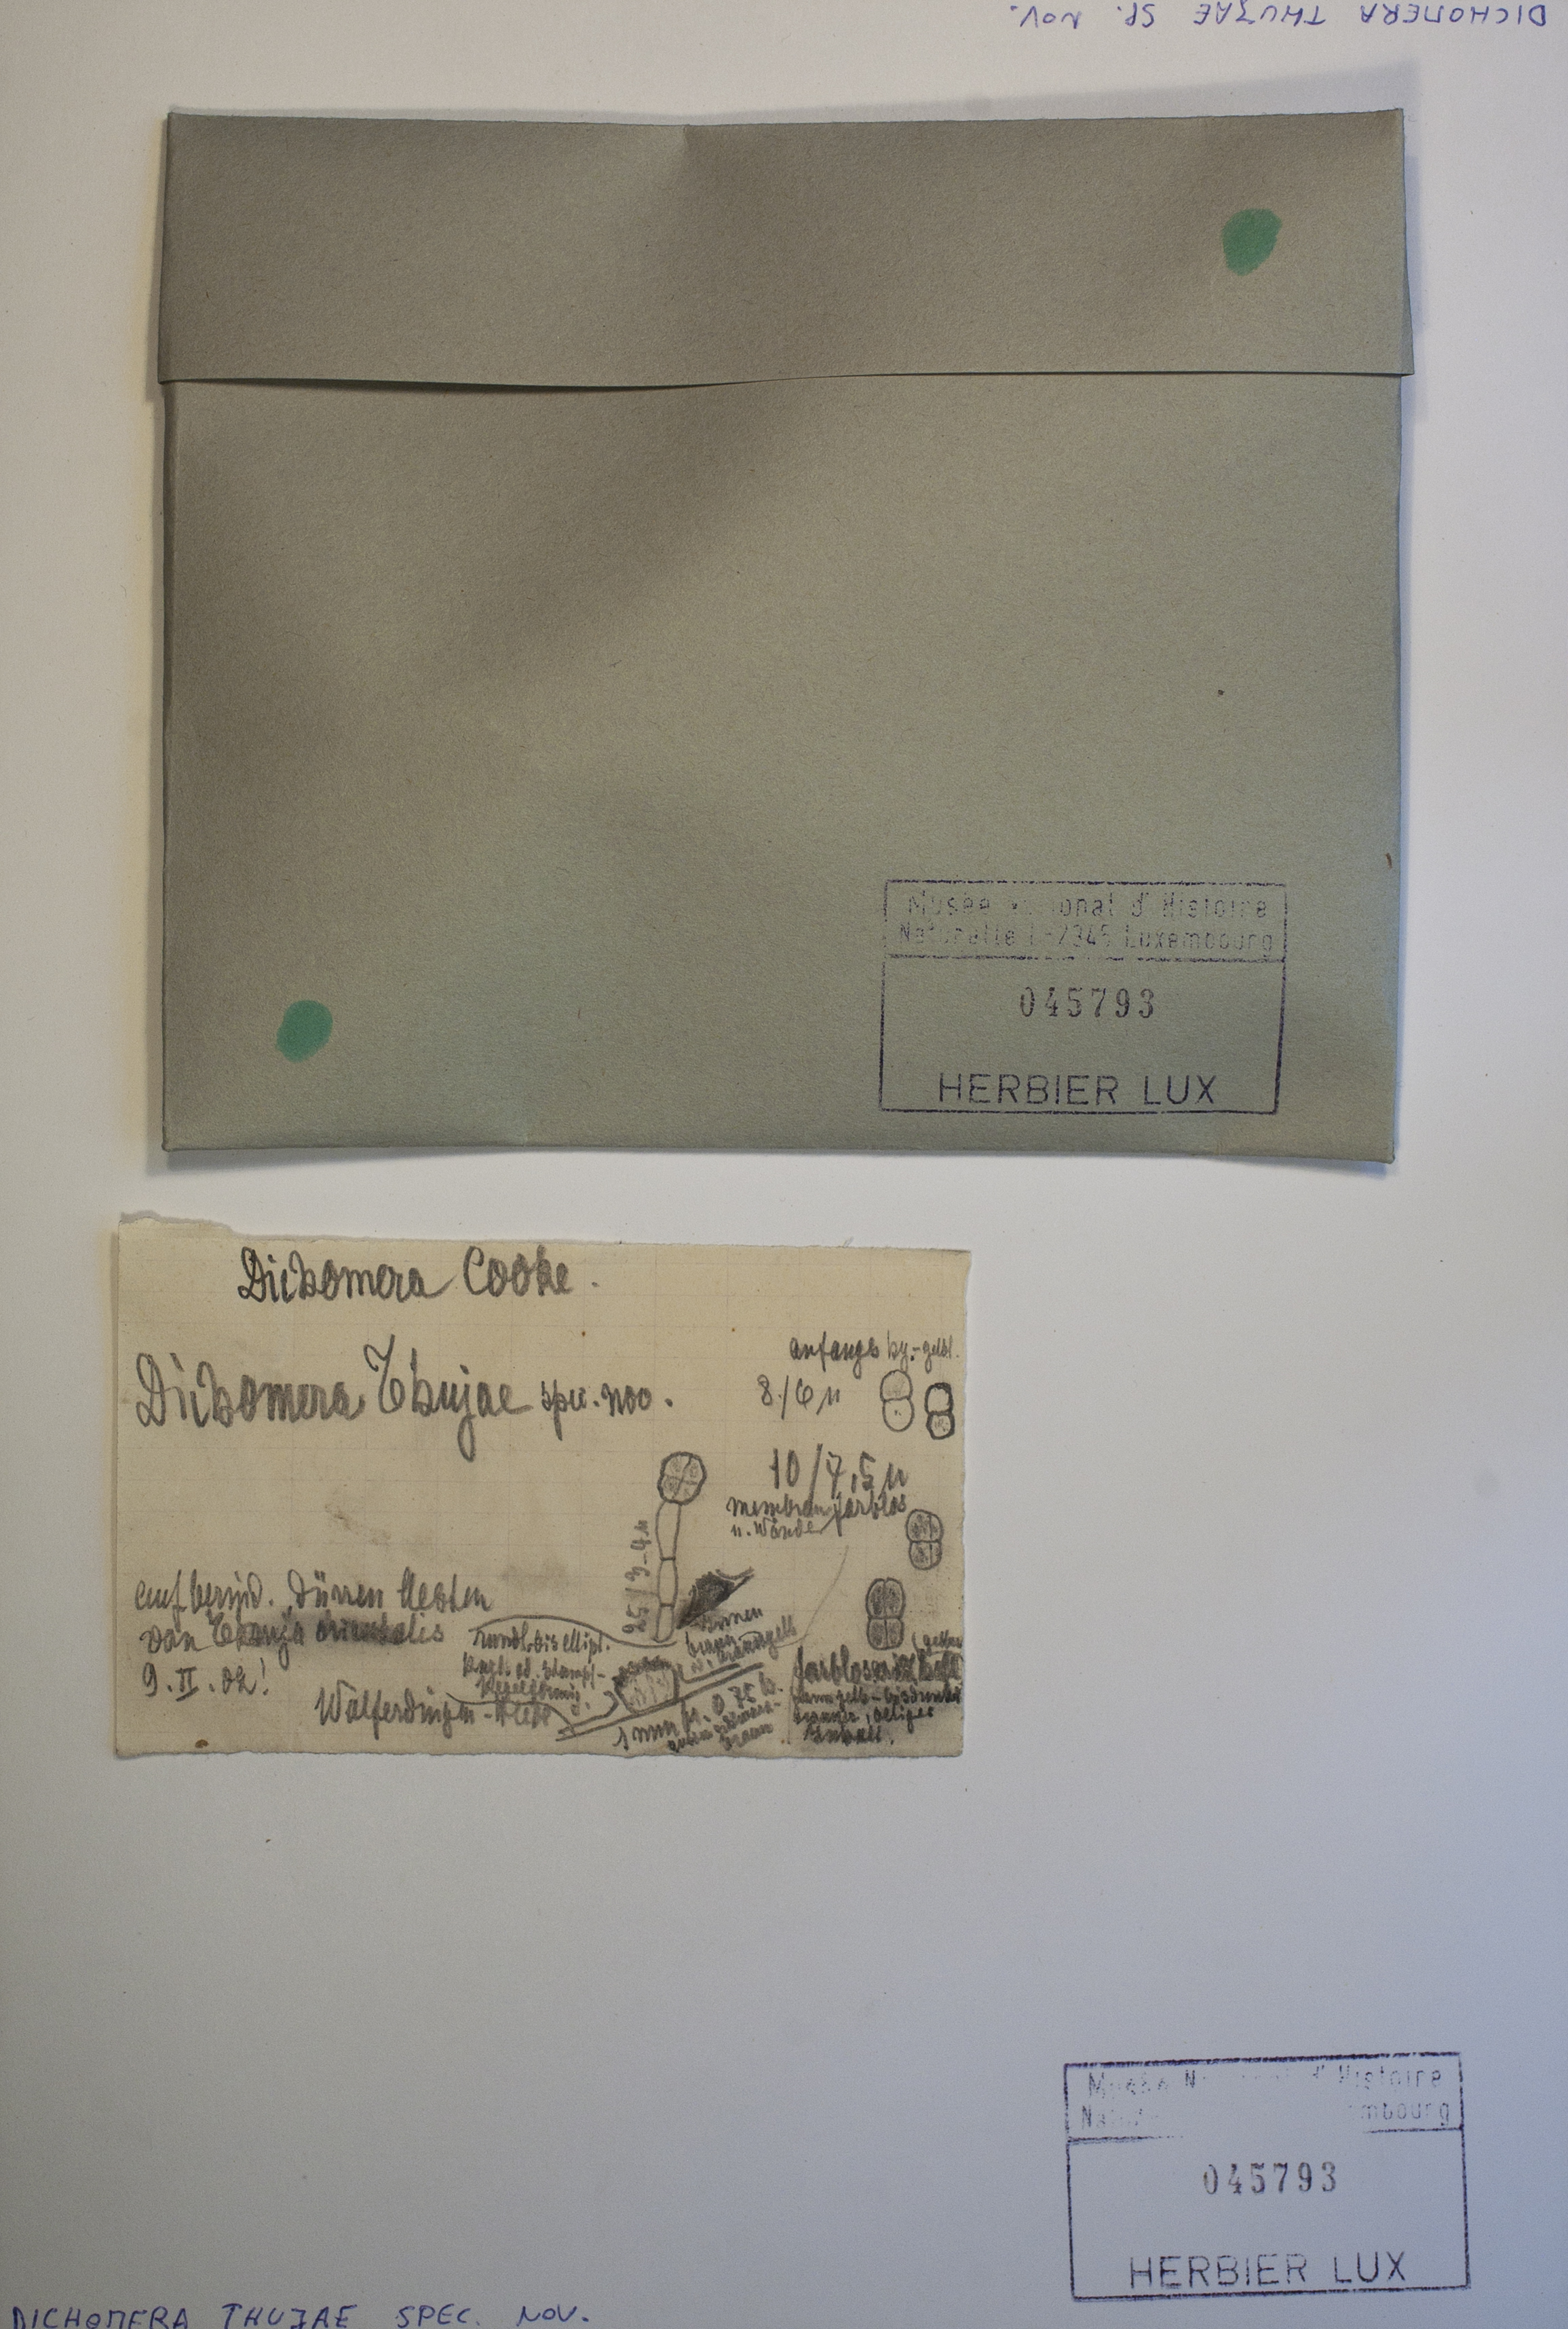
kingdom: Fungi
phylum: Ascomycota
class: Dothideomycetes
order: Botryosphaeriales
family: Botryosphaeriaceae
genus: Dichomera
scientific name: Dichomera
